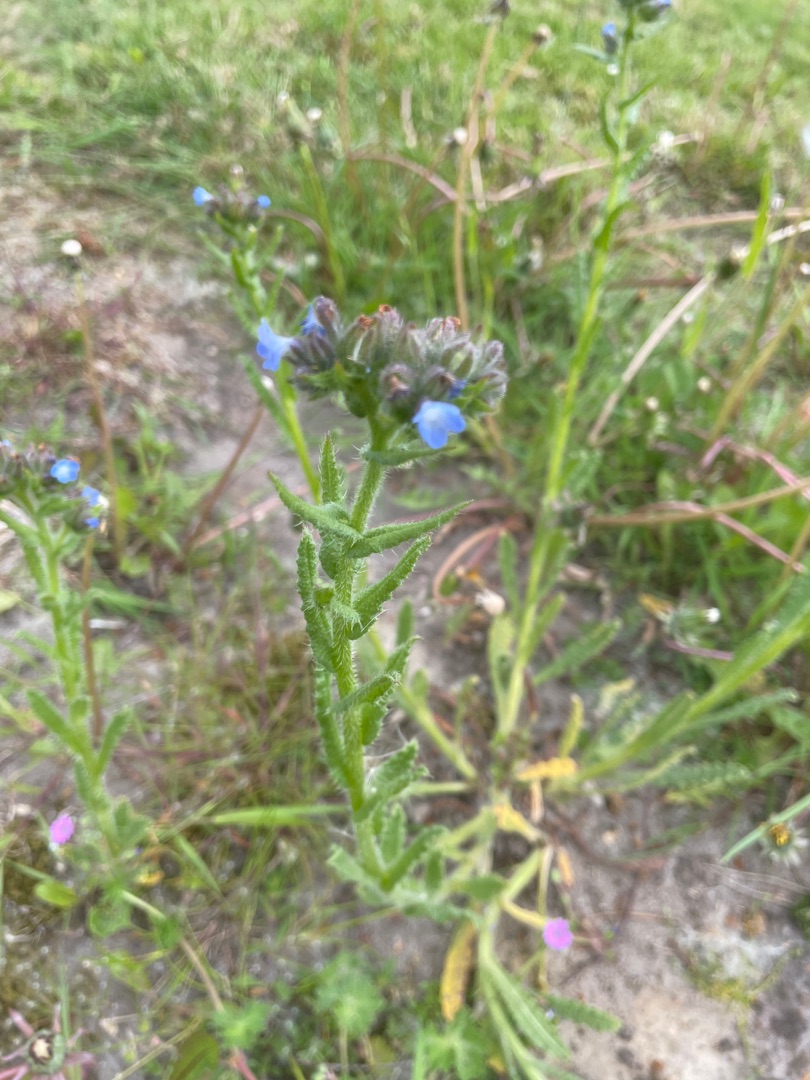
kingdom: Plantae
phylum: Tracheophyta
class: Magnoliopsida
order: Boraginales
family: Boraginaceae
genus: Lycopsis
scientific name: Lycopsis arvensis
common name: Krumhals
